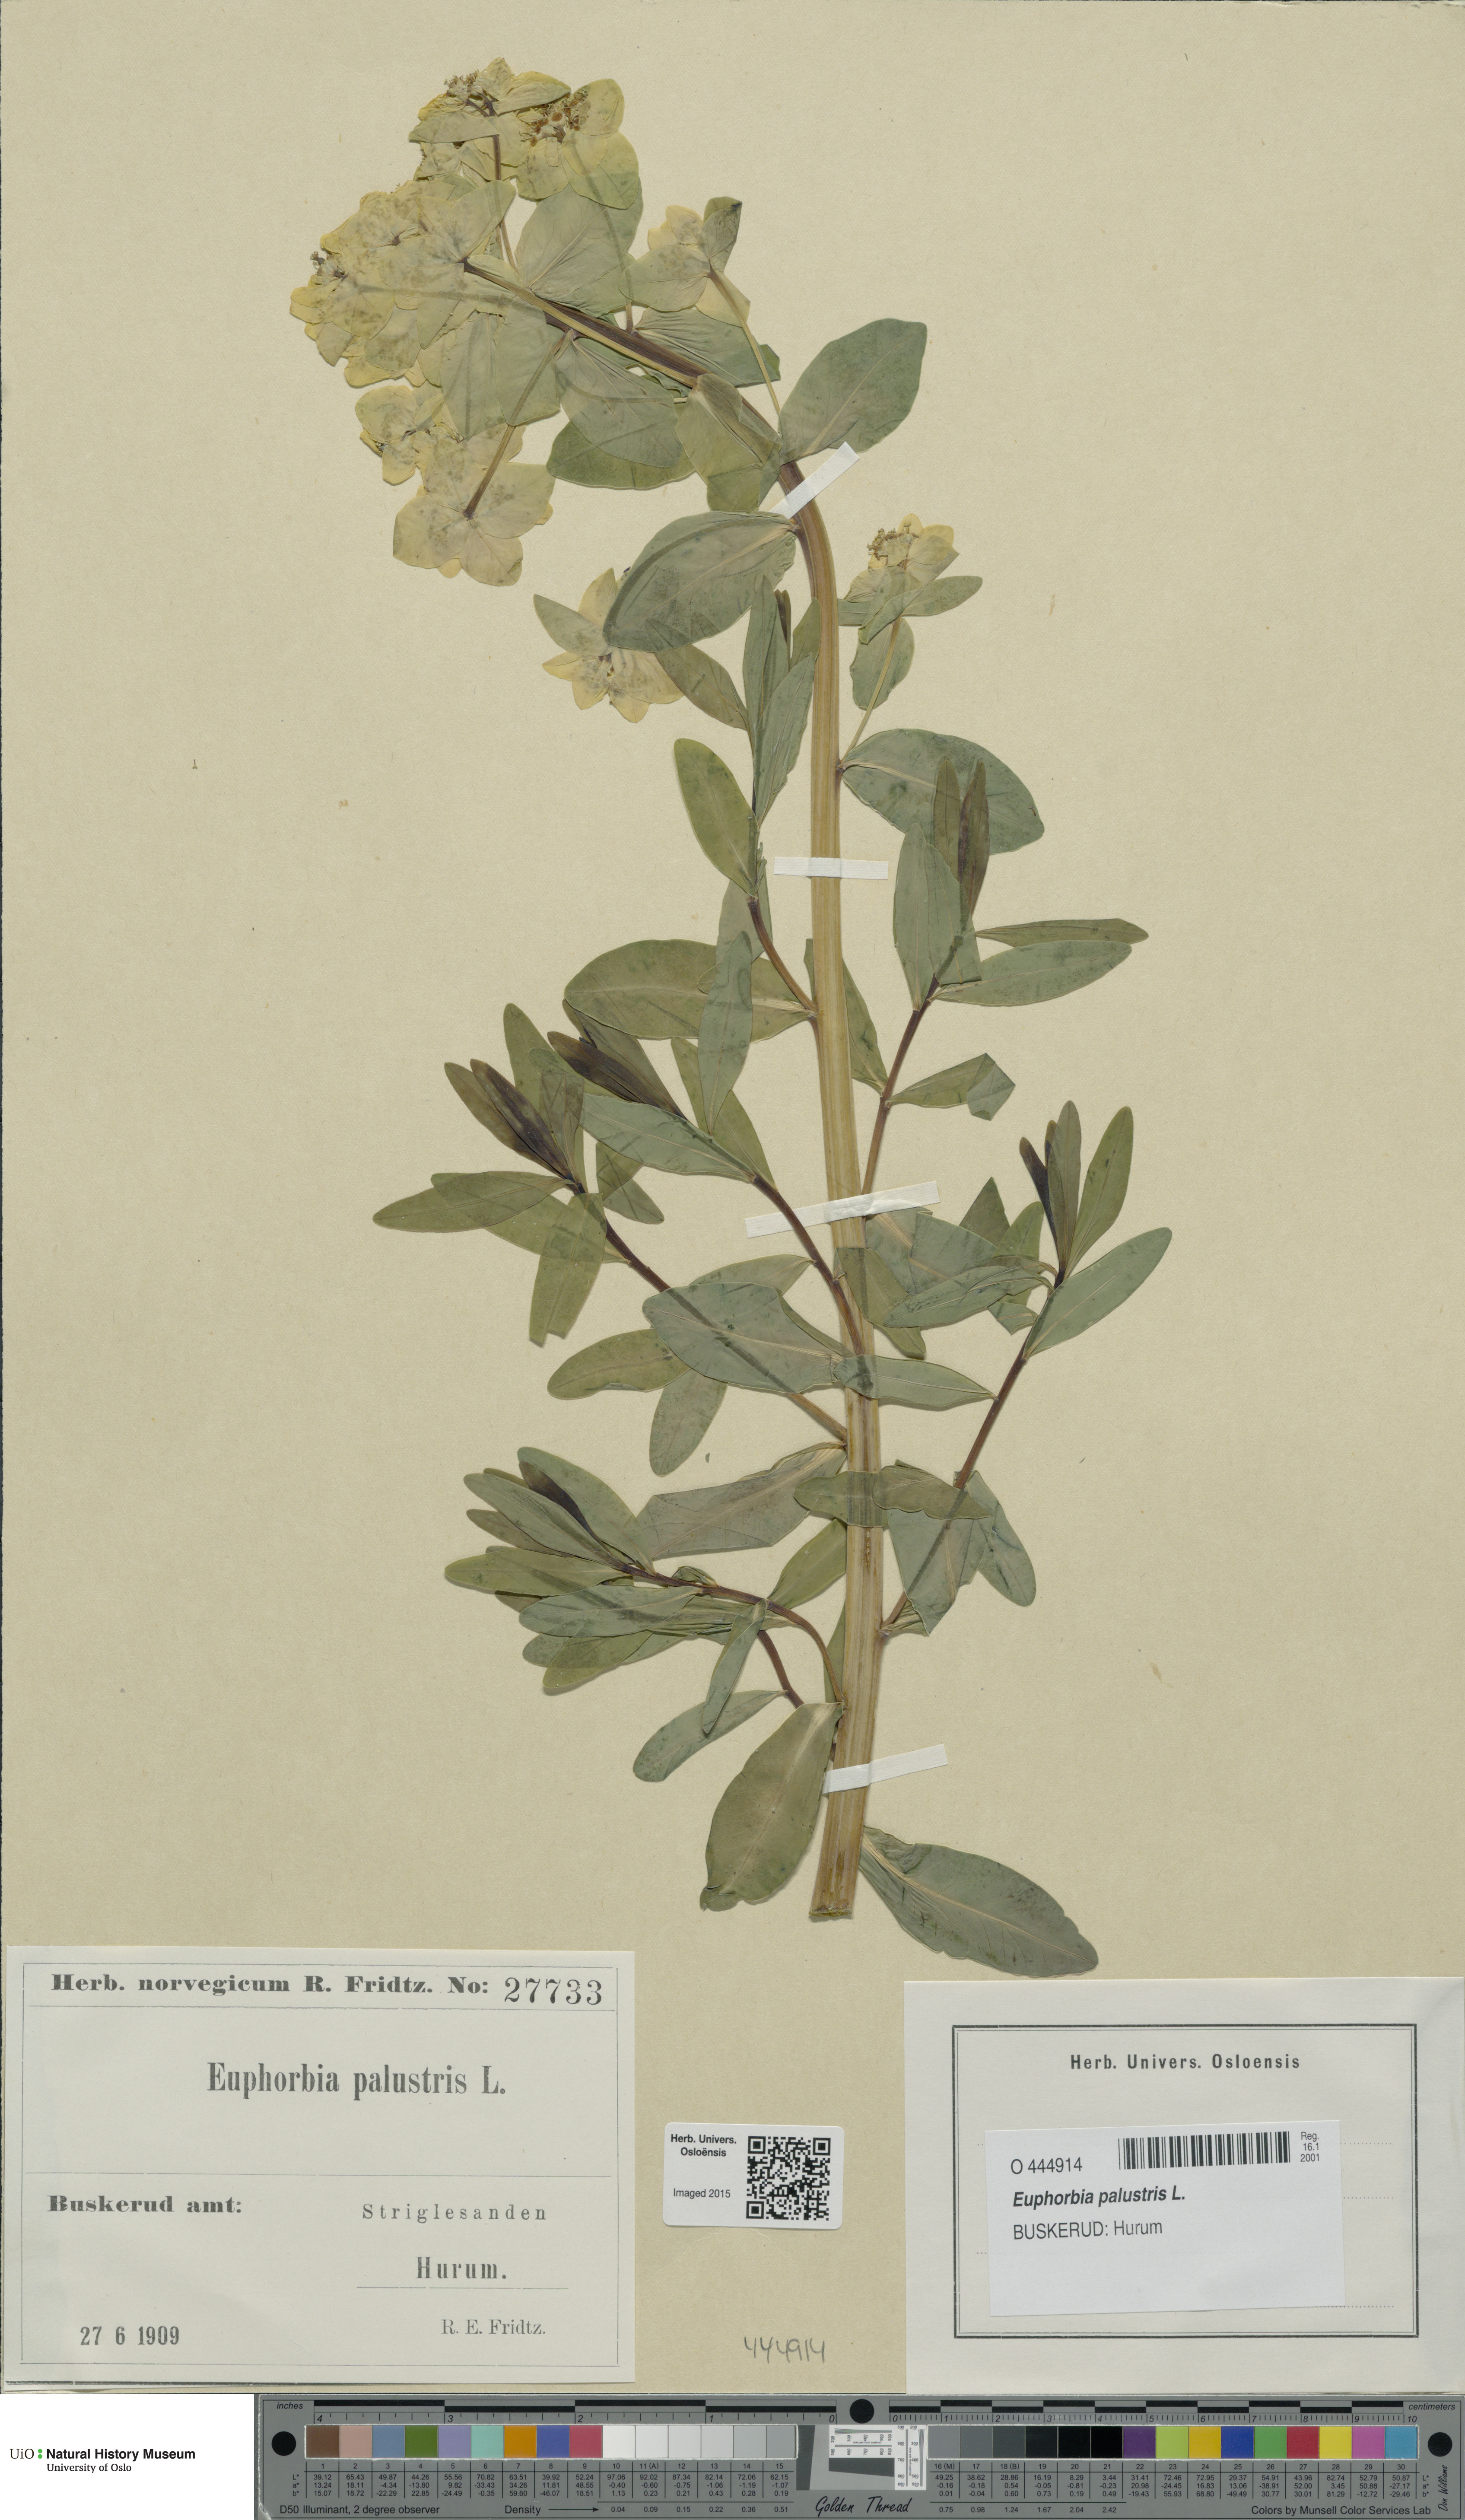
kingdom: Plantae
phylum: Tracheophyta
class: Magnoliopsida
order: Malpighiales
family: Euphorbiaceae
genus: Euphorbia
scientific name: Euphorbia palustris
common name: Marsh spurge
